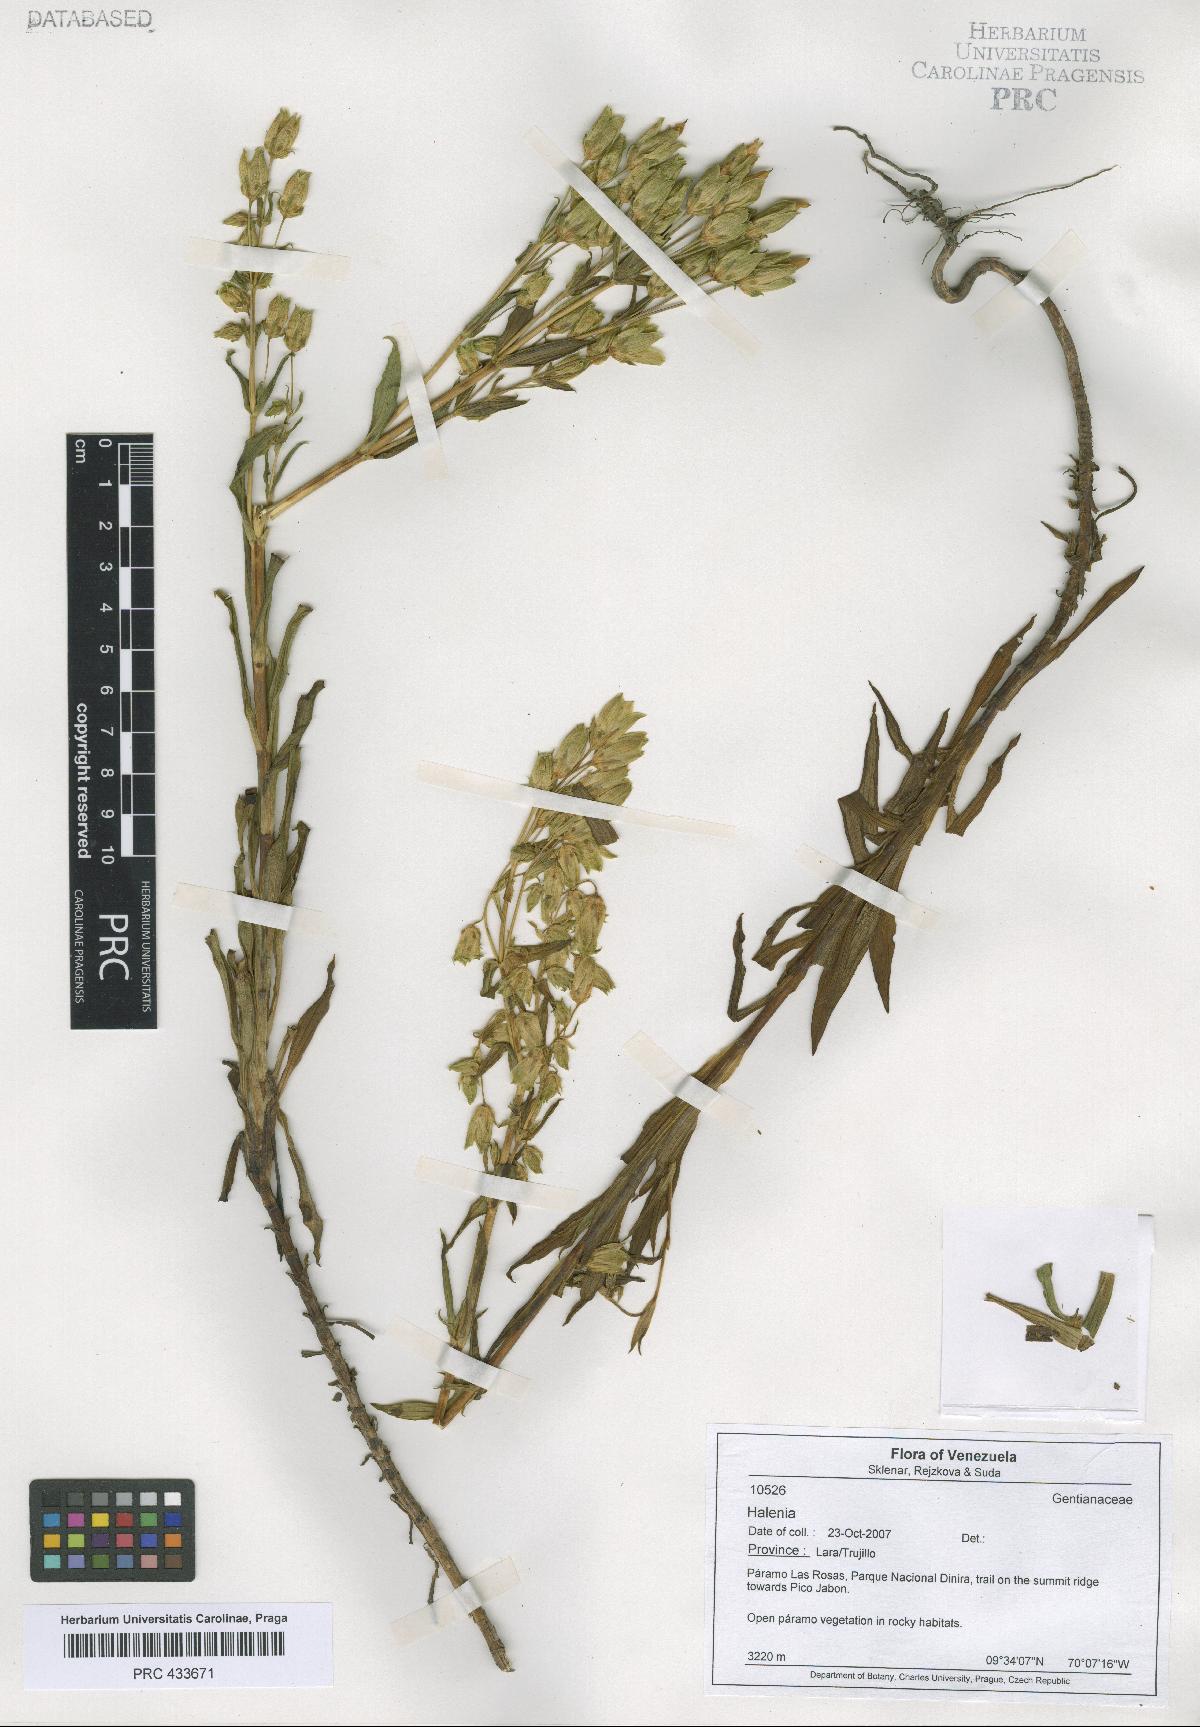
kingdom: Plantae
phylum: Tracheophyta
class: Magnoliopsida
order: Gentianales
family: Gentianaceae
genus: Halenia
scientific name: Halenia
